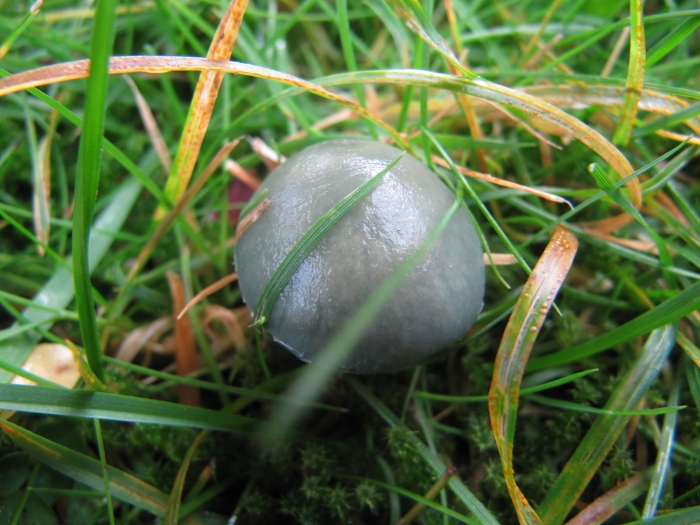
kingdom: Fungi
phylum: Basidiomycota
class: Agaricomycetes
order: Agaricales
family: Strophariaceae
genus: Stropharia
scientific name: Stropharia cyanea
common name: blågrøn bredblad
